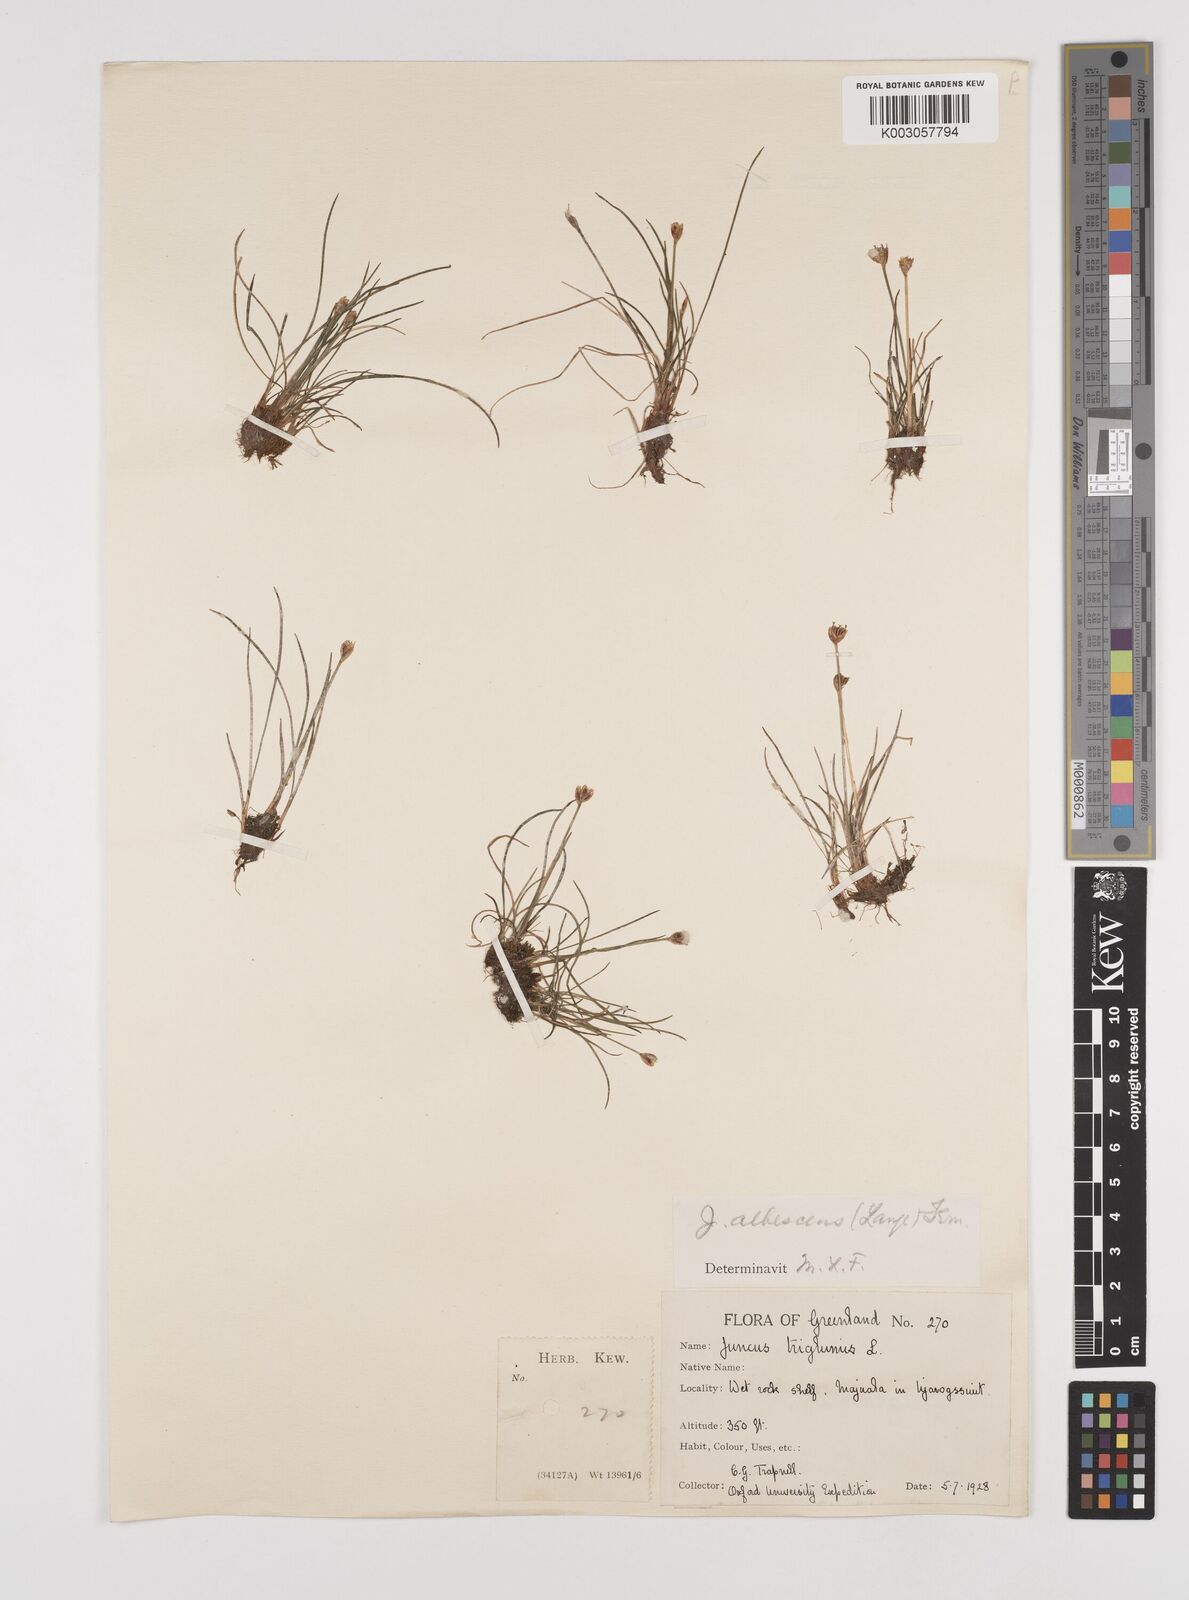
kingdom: Plantae
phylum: Tracheophyta
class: Liliopsida
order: Poales
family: Juncaceae
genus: Juncus
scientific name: Juncus triglumis
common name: Three-flowered rush
